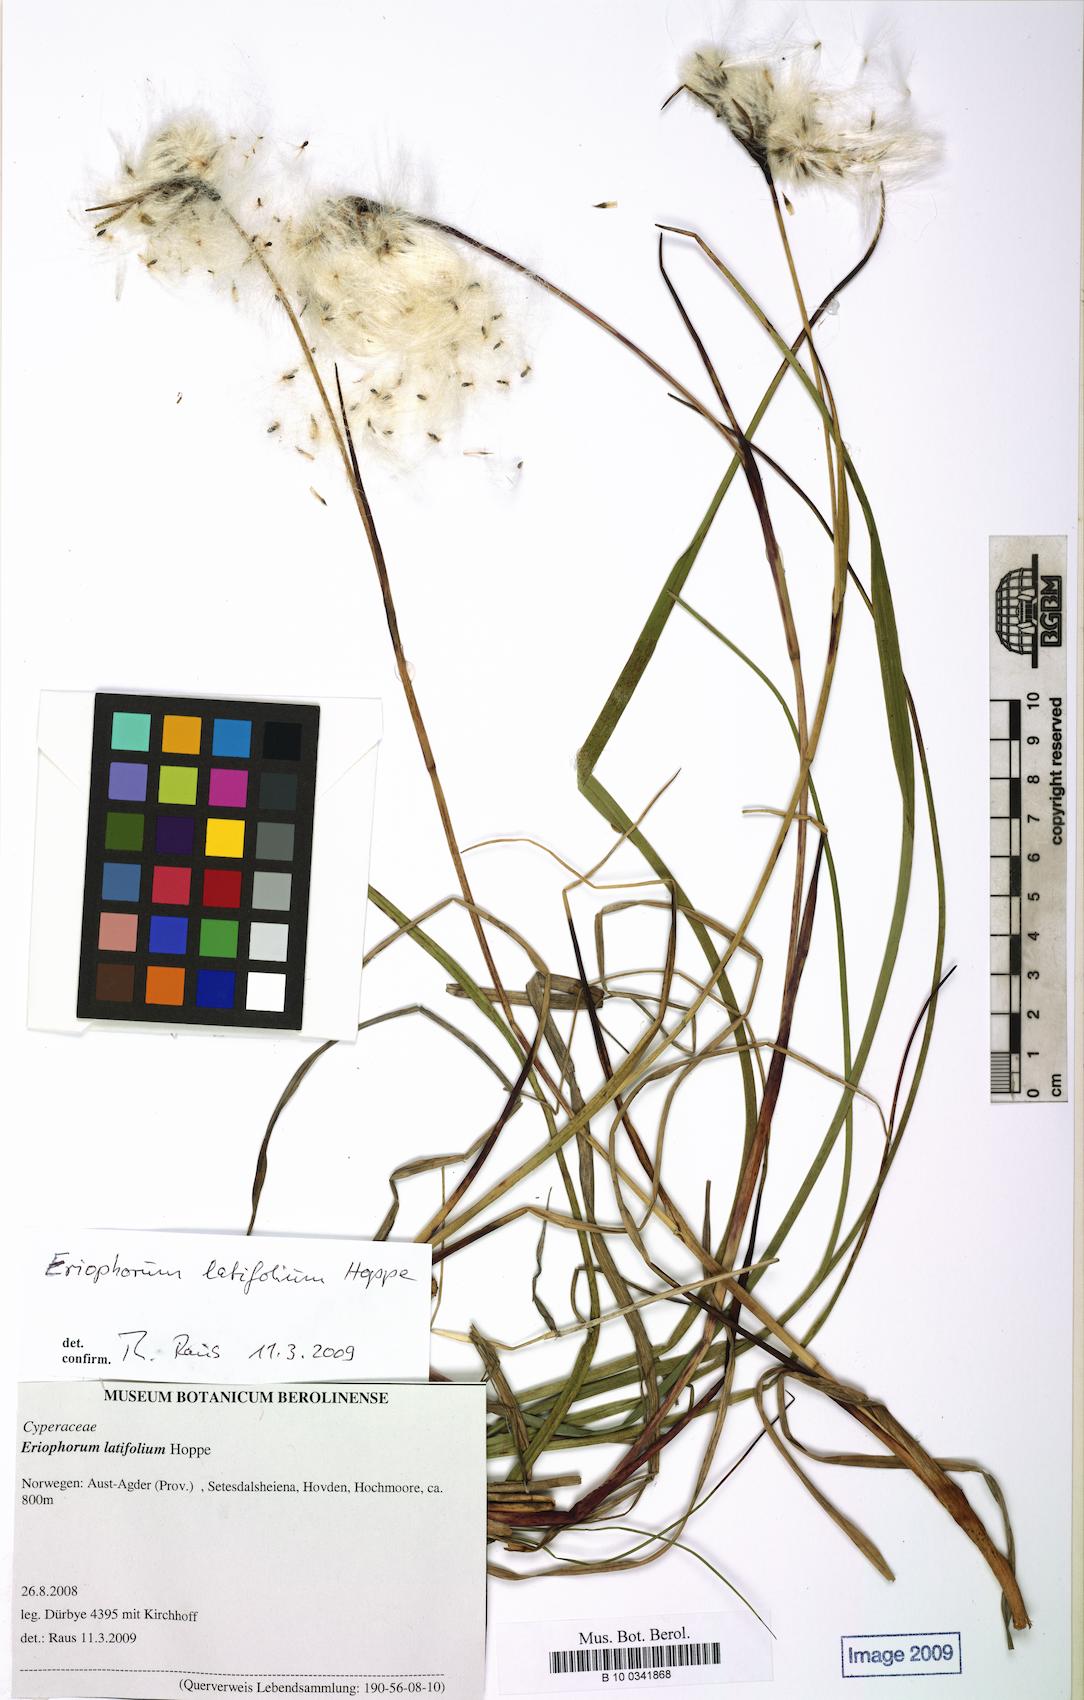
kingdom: Plantae
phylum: Tracheophyta
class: Liliopsida
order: Poales
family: Cyperaceae
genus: Eriophorum
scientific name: Eriophorum latifolium
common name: Broad-leaved cottongrass
